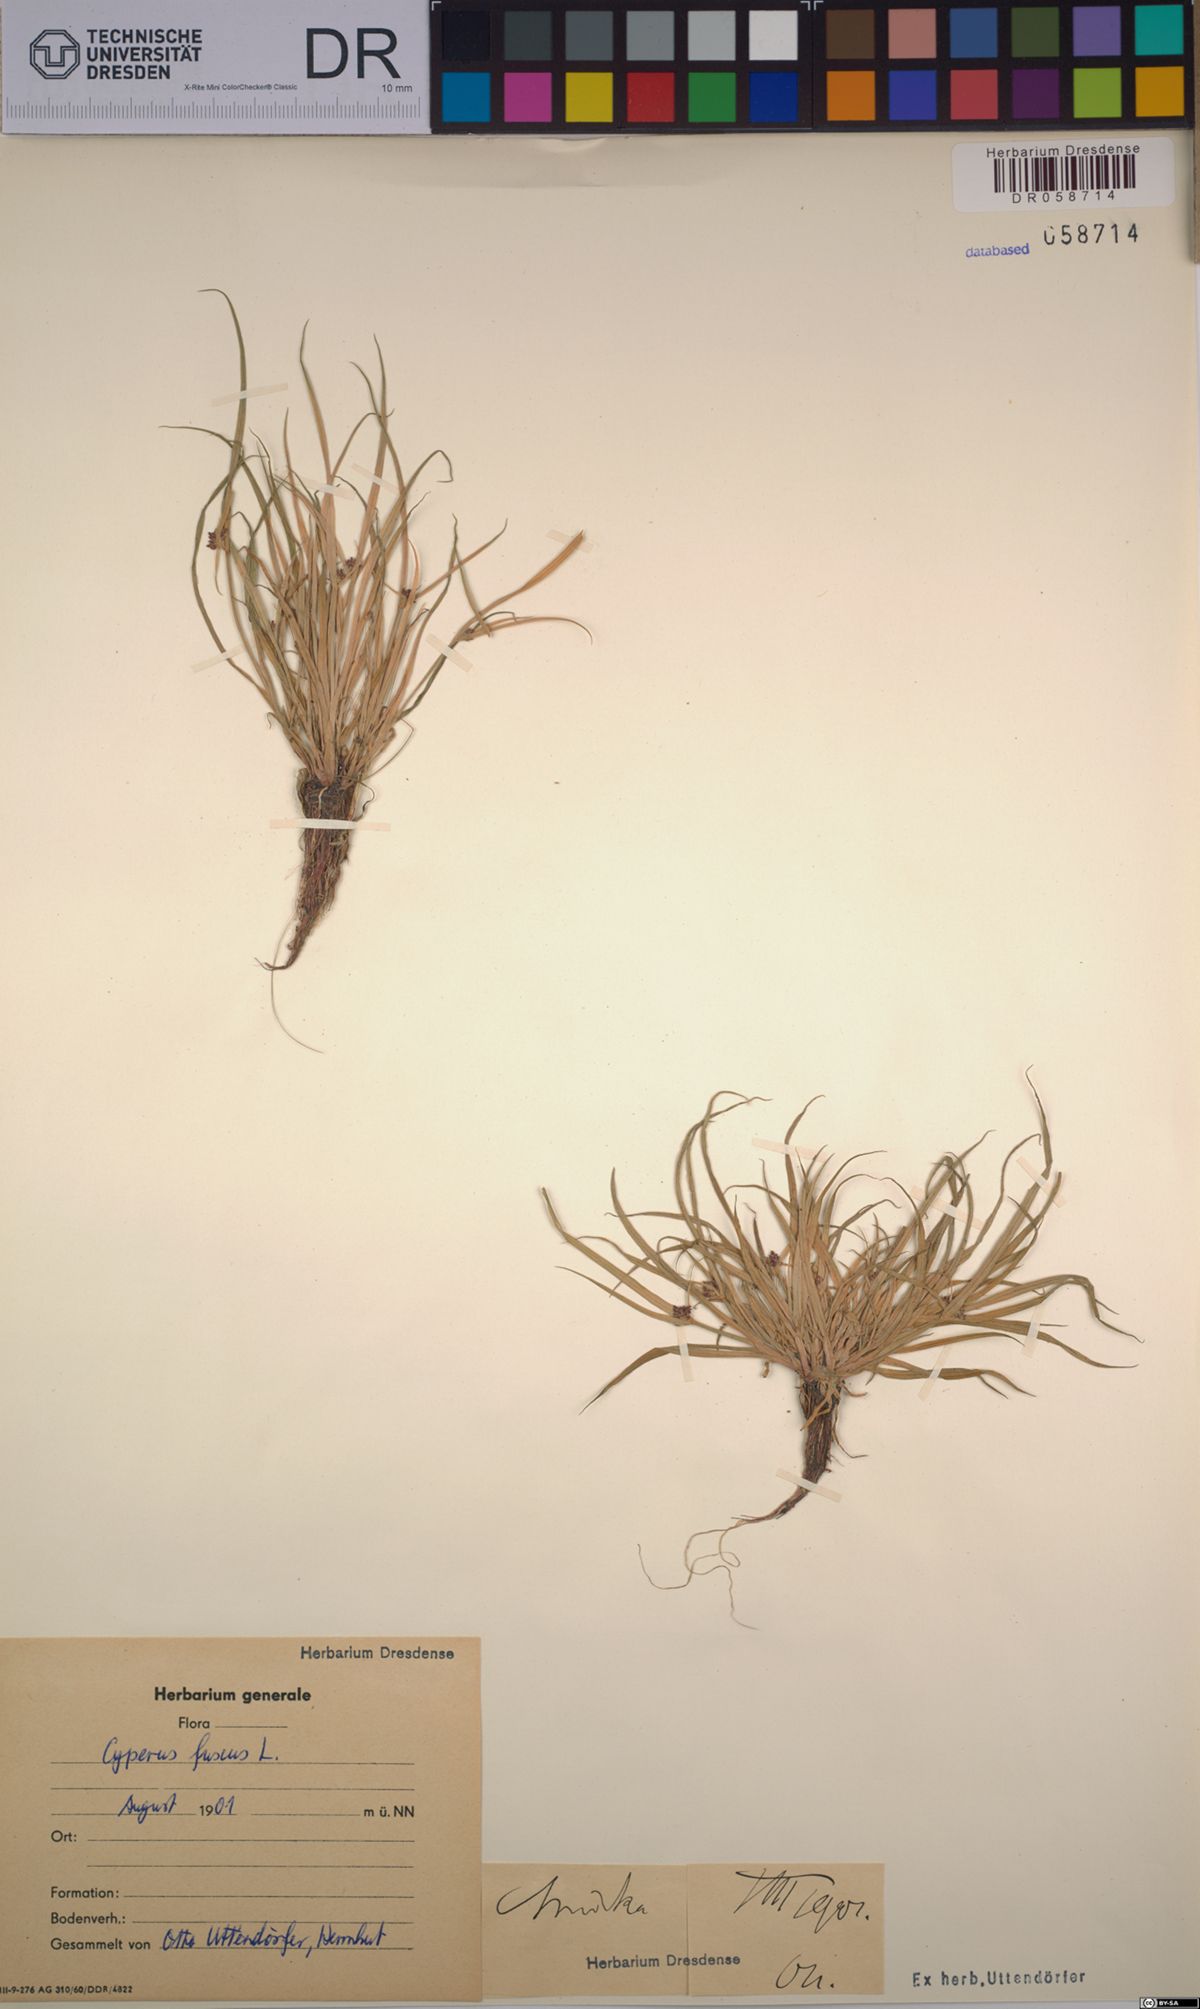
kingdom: Plantae
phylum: Tracheophyta
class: Liliopsida
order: Poales
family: Cyperaceae
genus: Cyperus
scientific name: Cyperus fuscus
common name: Brown galingale
